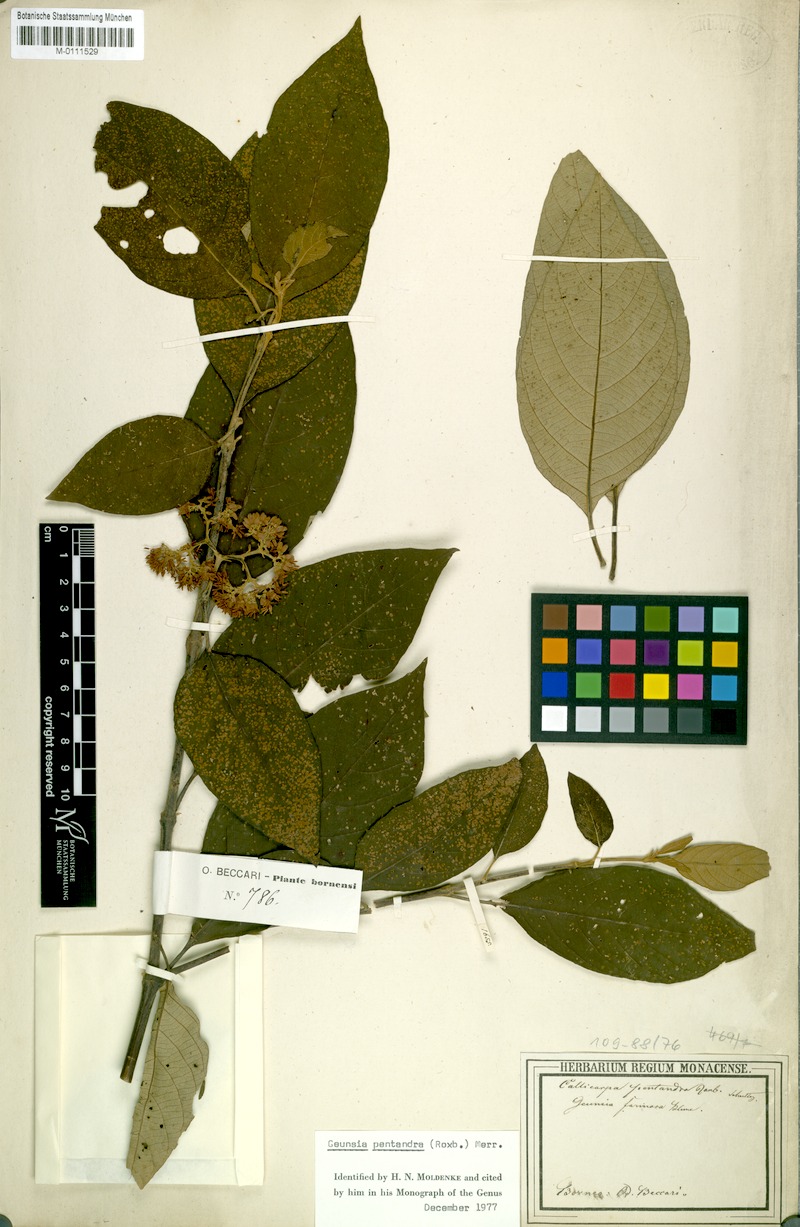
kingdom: Plantae
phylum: Tracheophyta
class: Magnoliopsida
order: Lamiales
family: Lamiaceae
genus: Callicarpa
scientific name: Callicarpa pentandra
